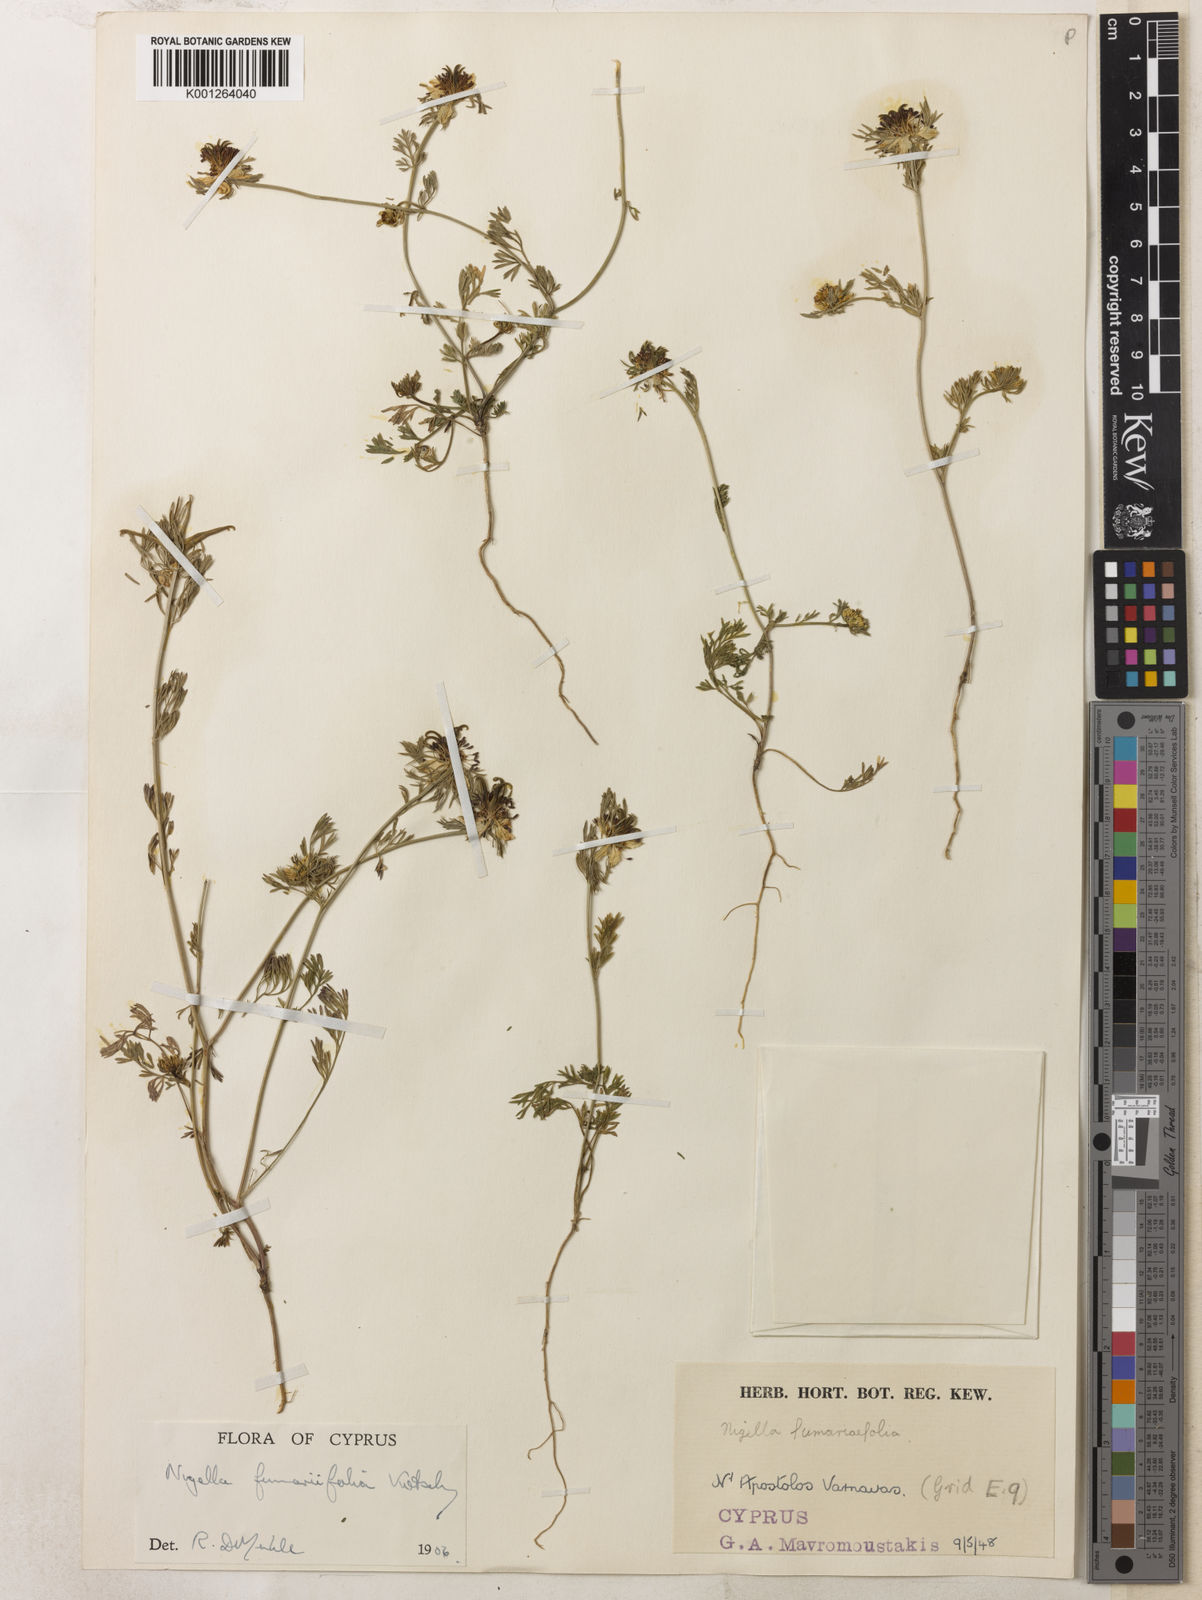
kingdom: Plantae
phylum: Tracheophyta
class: Magnoliopsida
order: Ranunculales
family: Ranunculaceae
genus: Nigella
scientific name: Nigella
